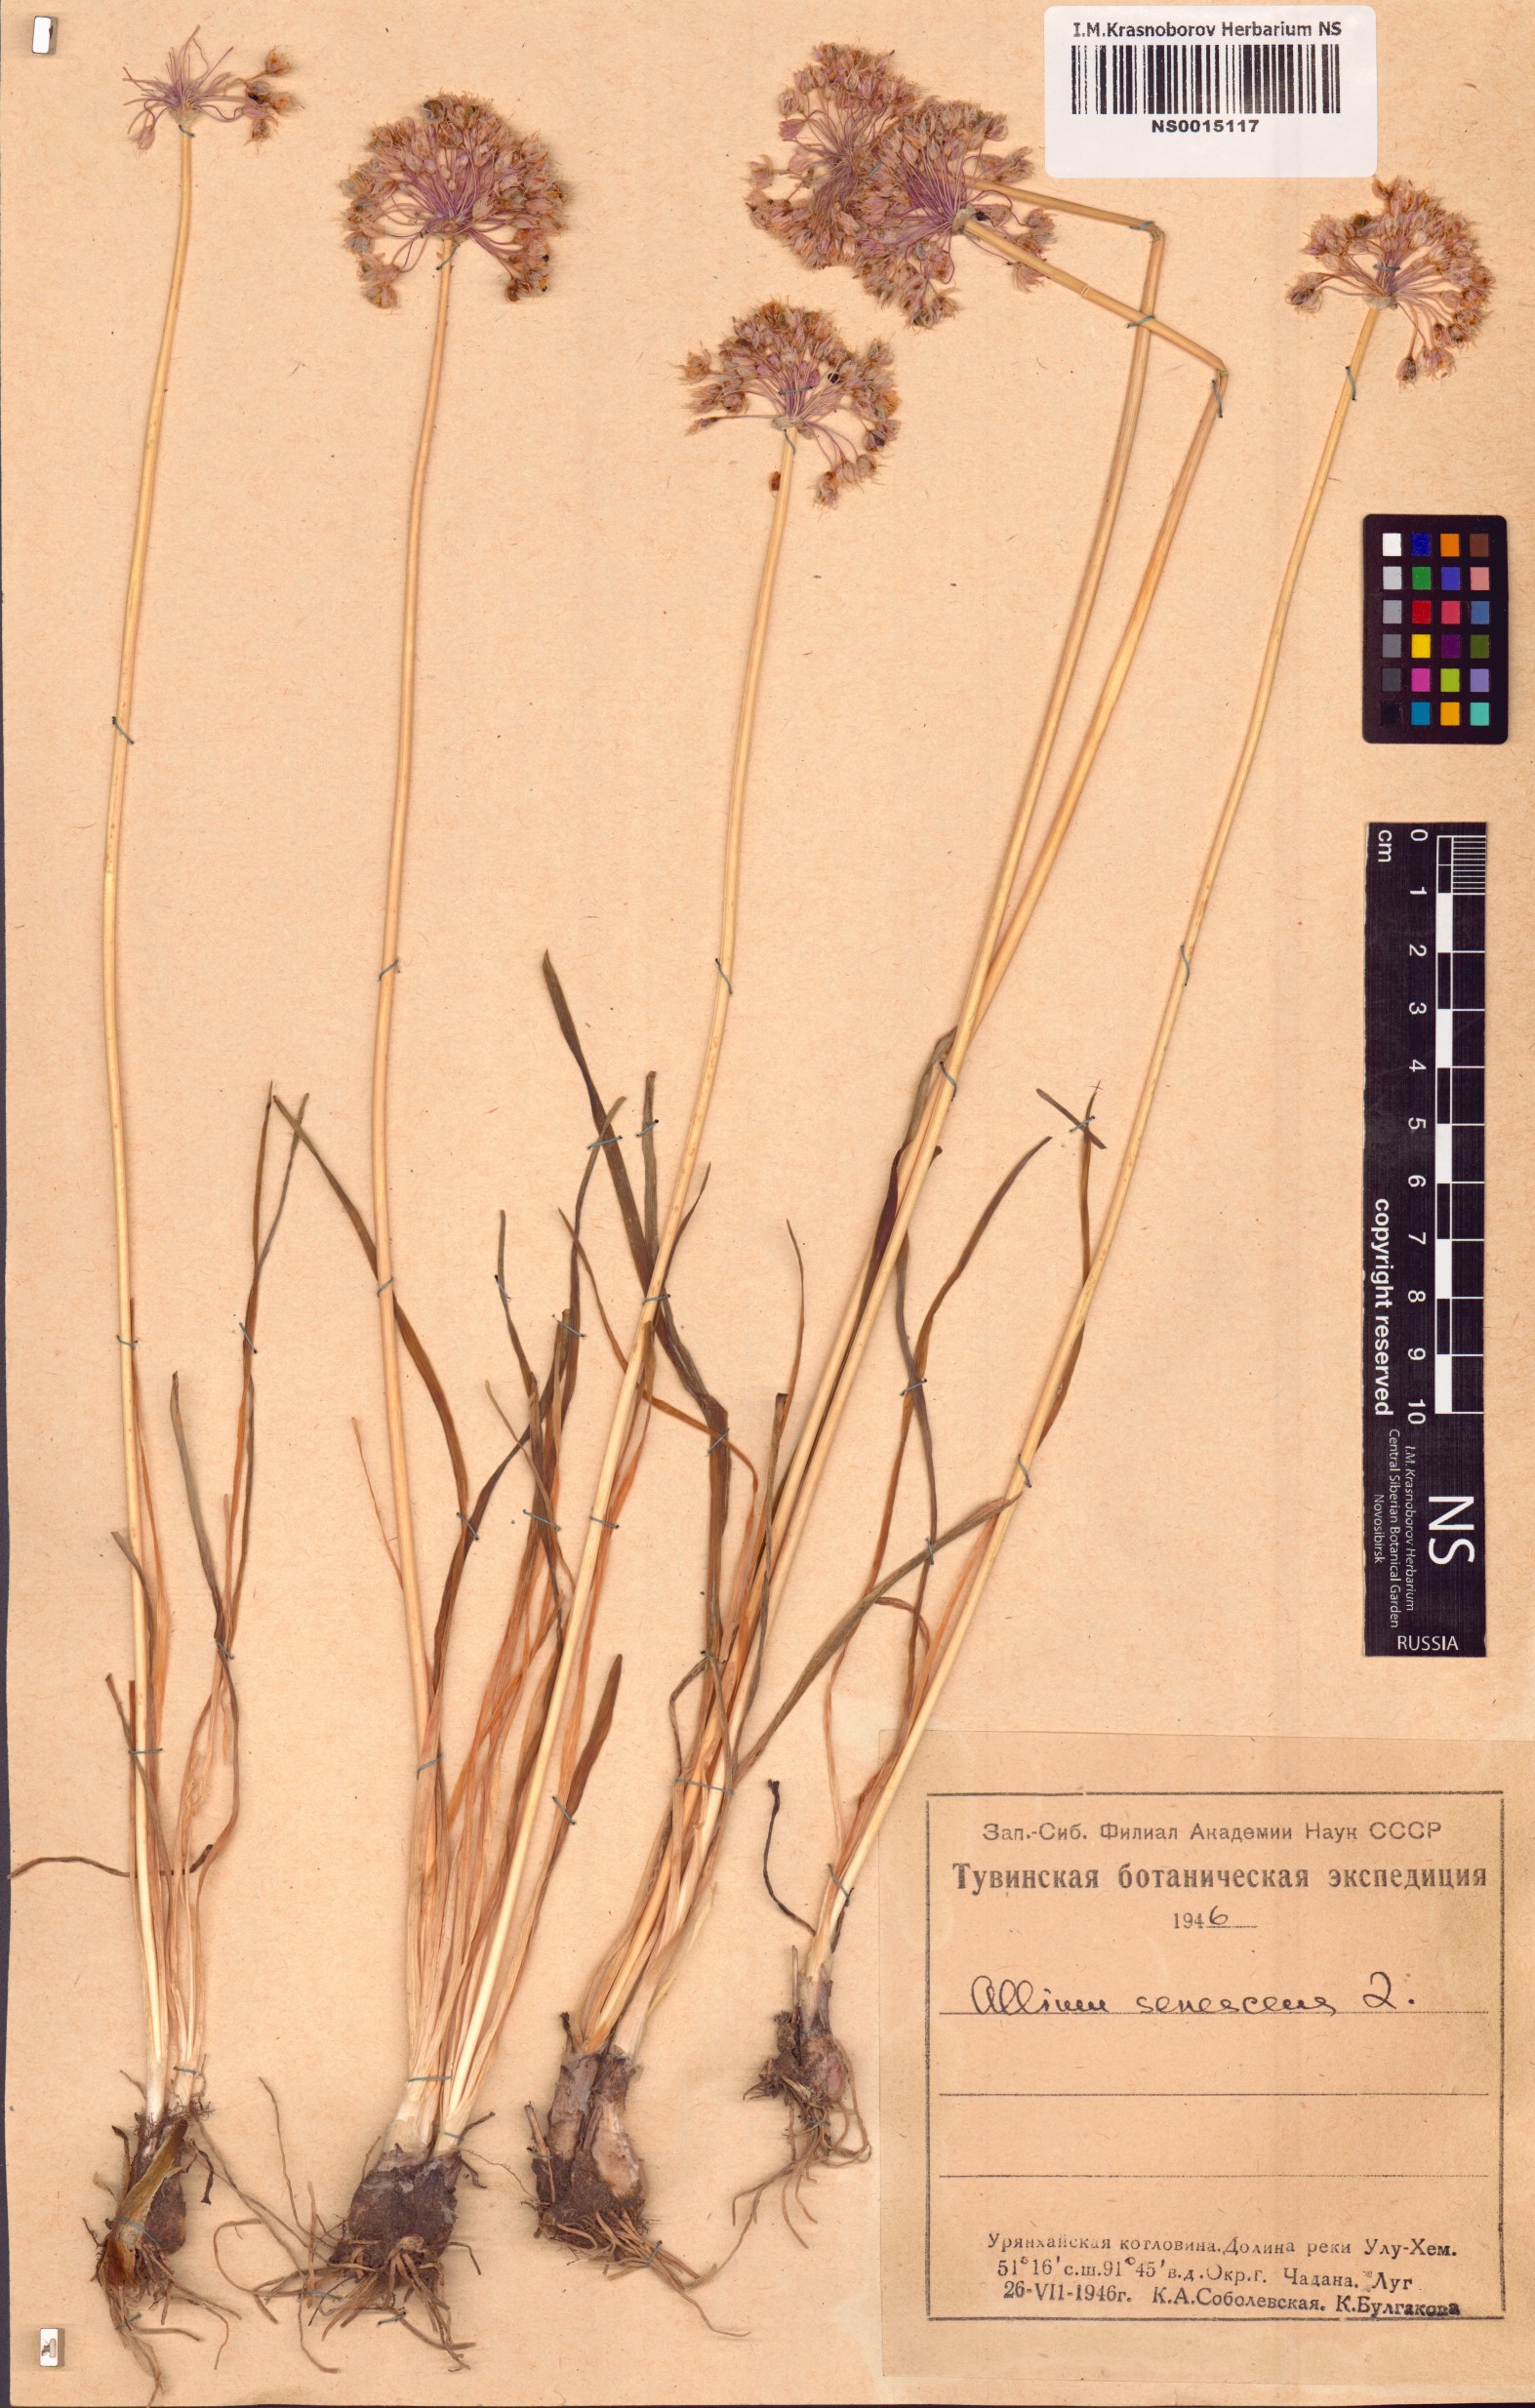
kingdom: Plantae
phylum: Tracheophyta
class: Liliopsida
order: Asparagales
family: Amaryllidaceae
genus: Allium
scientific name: Allium senescens
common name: German garlic
